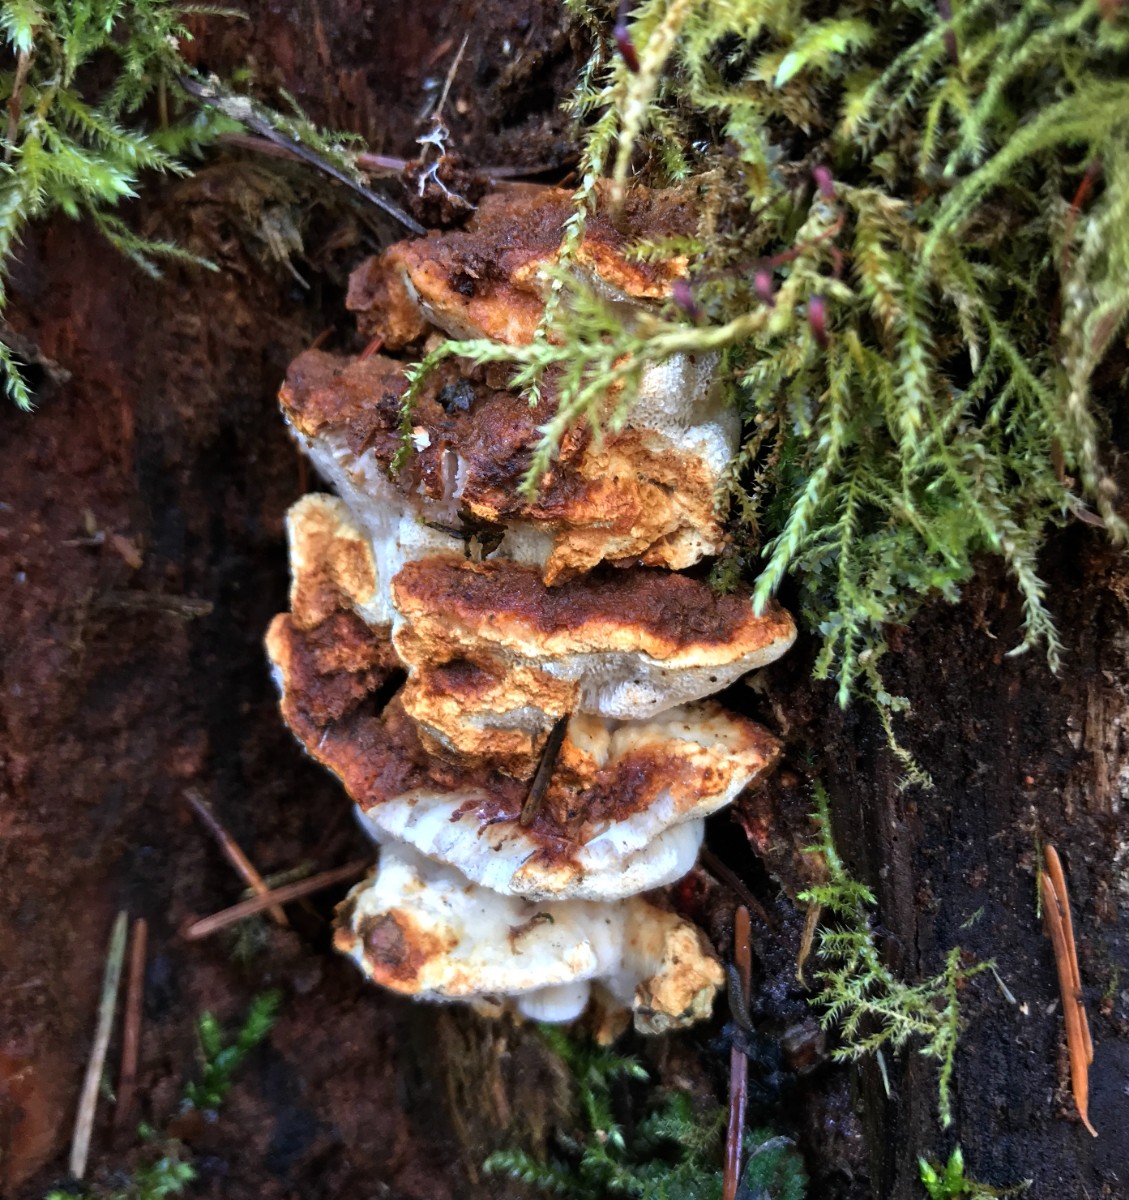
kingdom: Fungi
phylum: Basidiomycota
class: Agaricomycetes
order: Russulales
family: Bondarzewiaceae
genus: Heterobasidion
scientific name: Heterobasidion annosum
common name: almindelig rodfordærver
